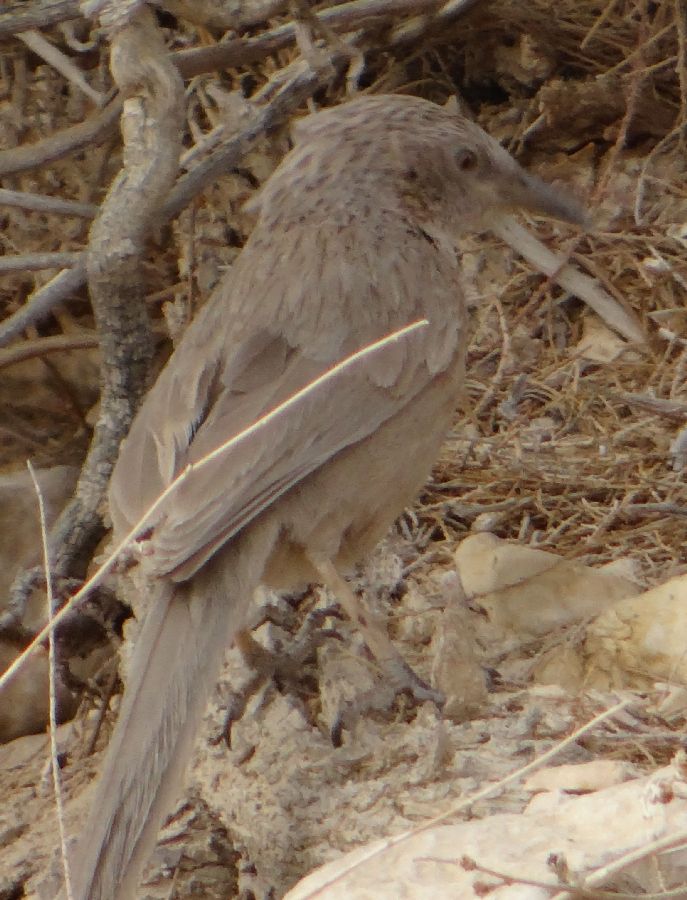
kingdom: Animalia
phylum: Chordata
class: Aves
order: Passeriformes
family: Leiothrichidae
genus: Turdoides
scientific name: Turdoides squamiceps
